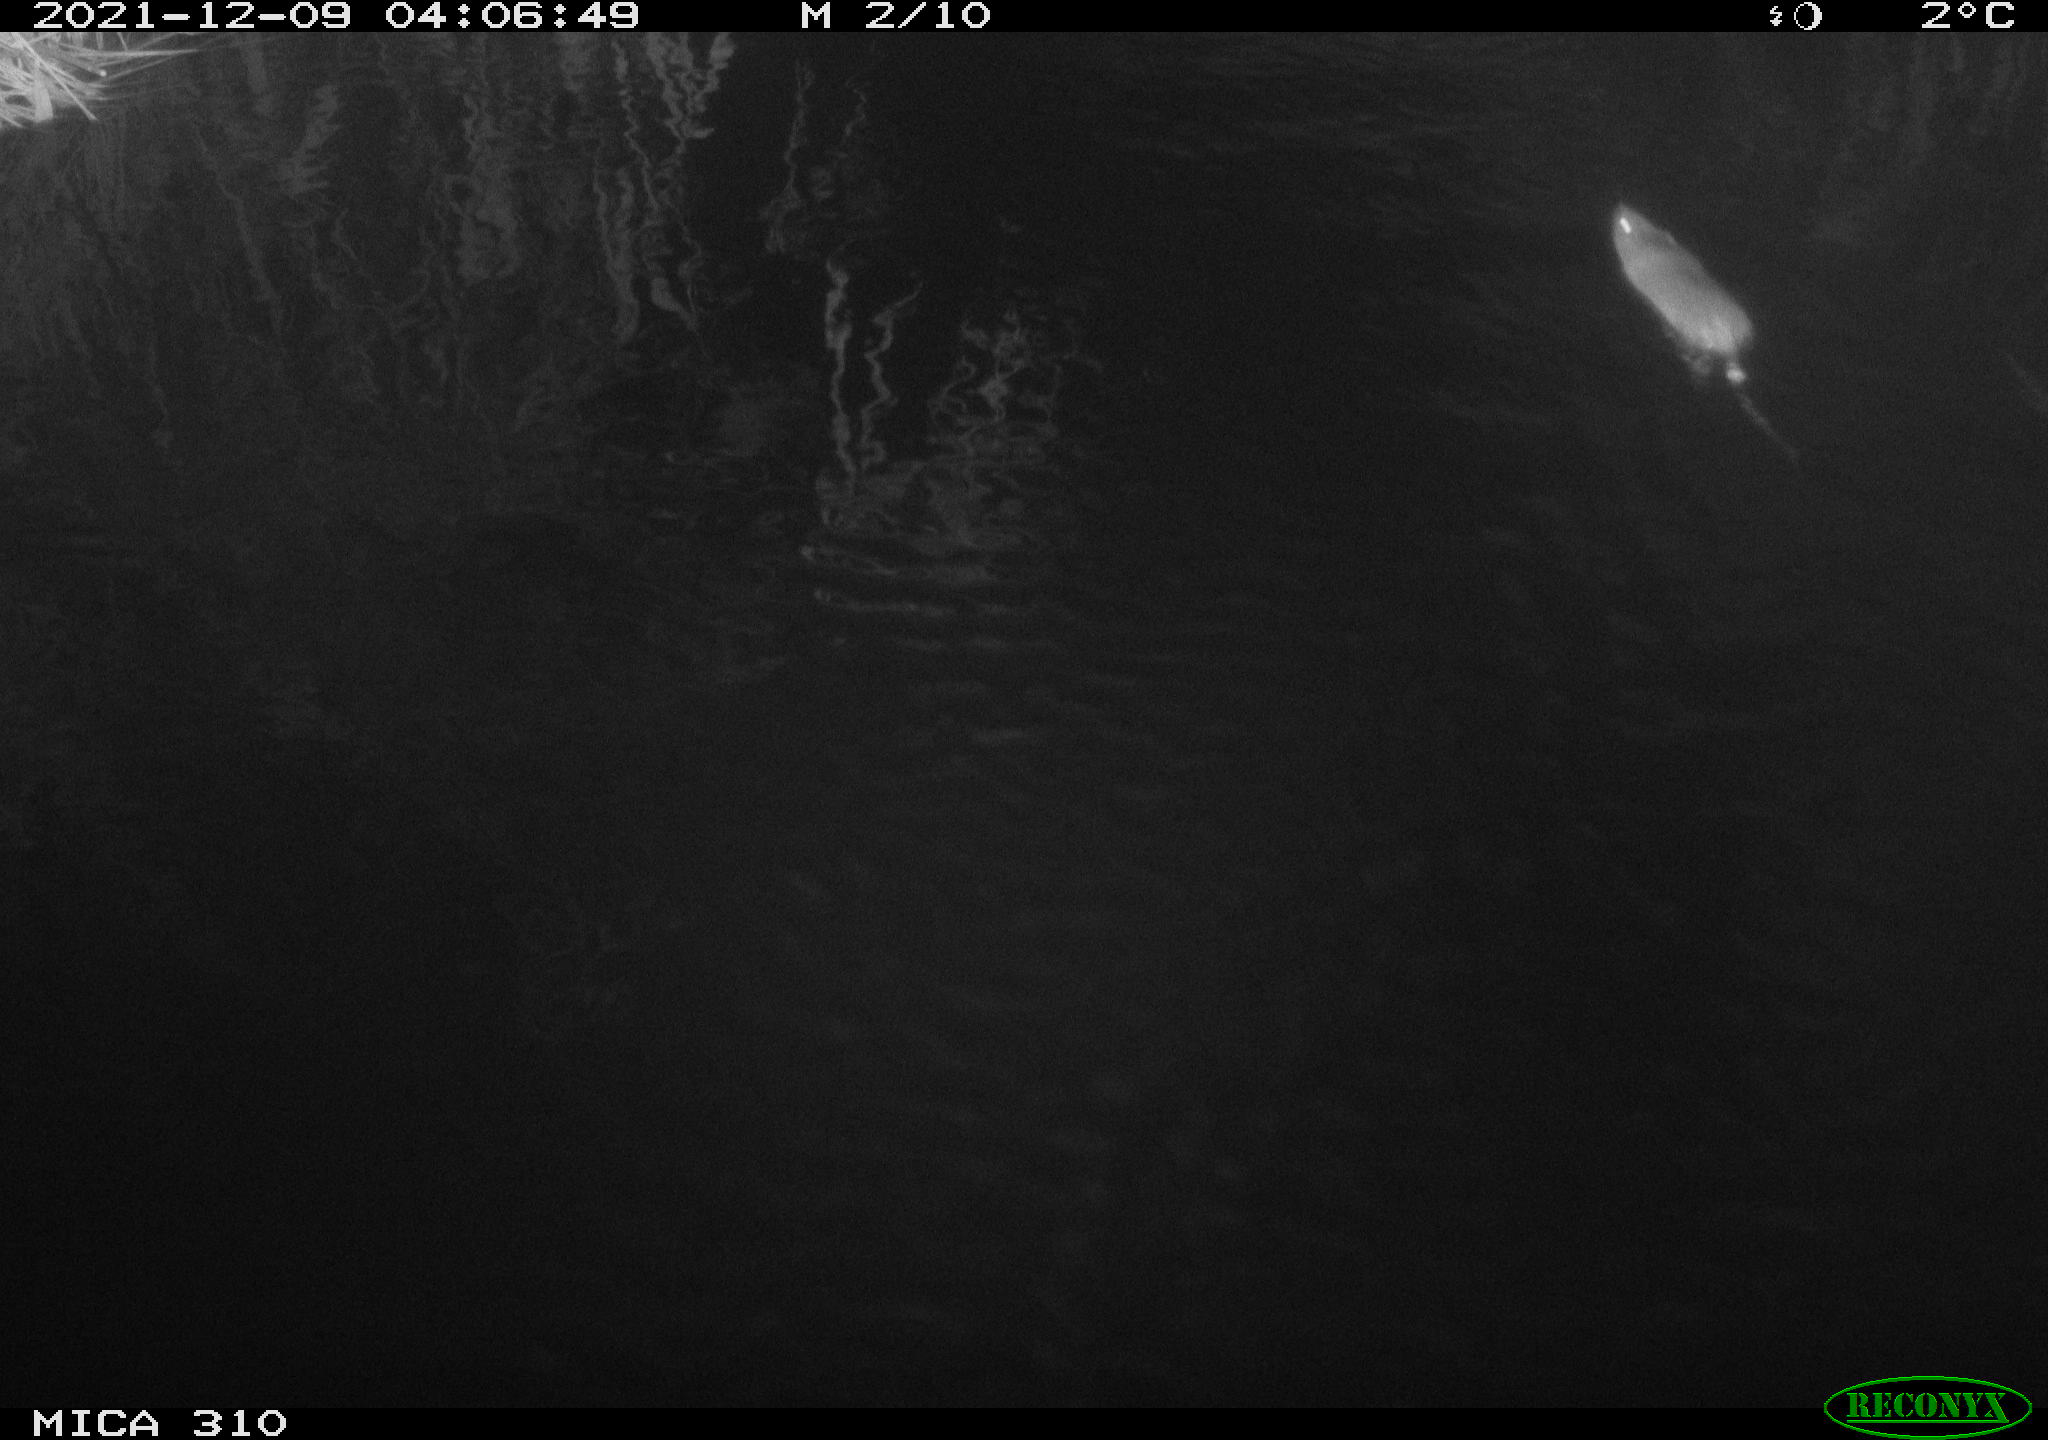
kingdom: Animalia
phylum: Chordata
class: Mammalia
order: Rodentia
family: Cricetidae
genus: Ondatra
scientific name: Ondatra zibethicus
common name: Muskrat
